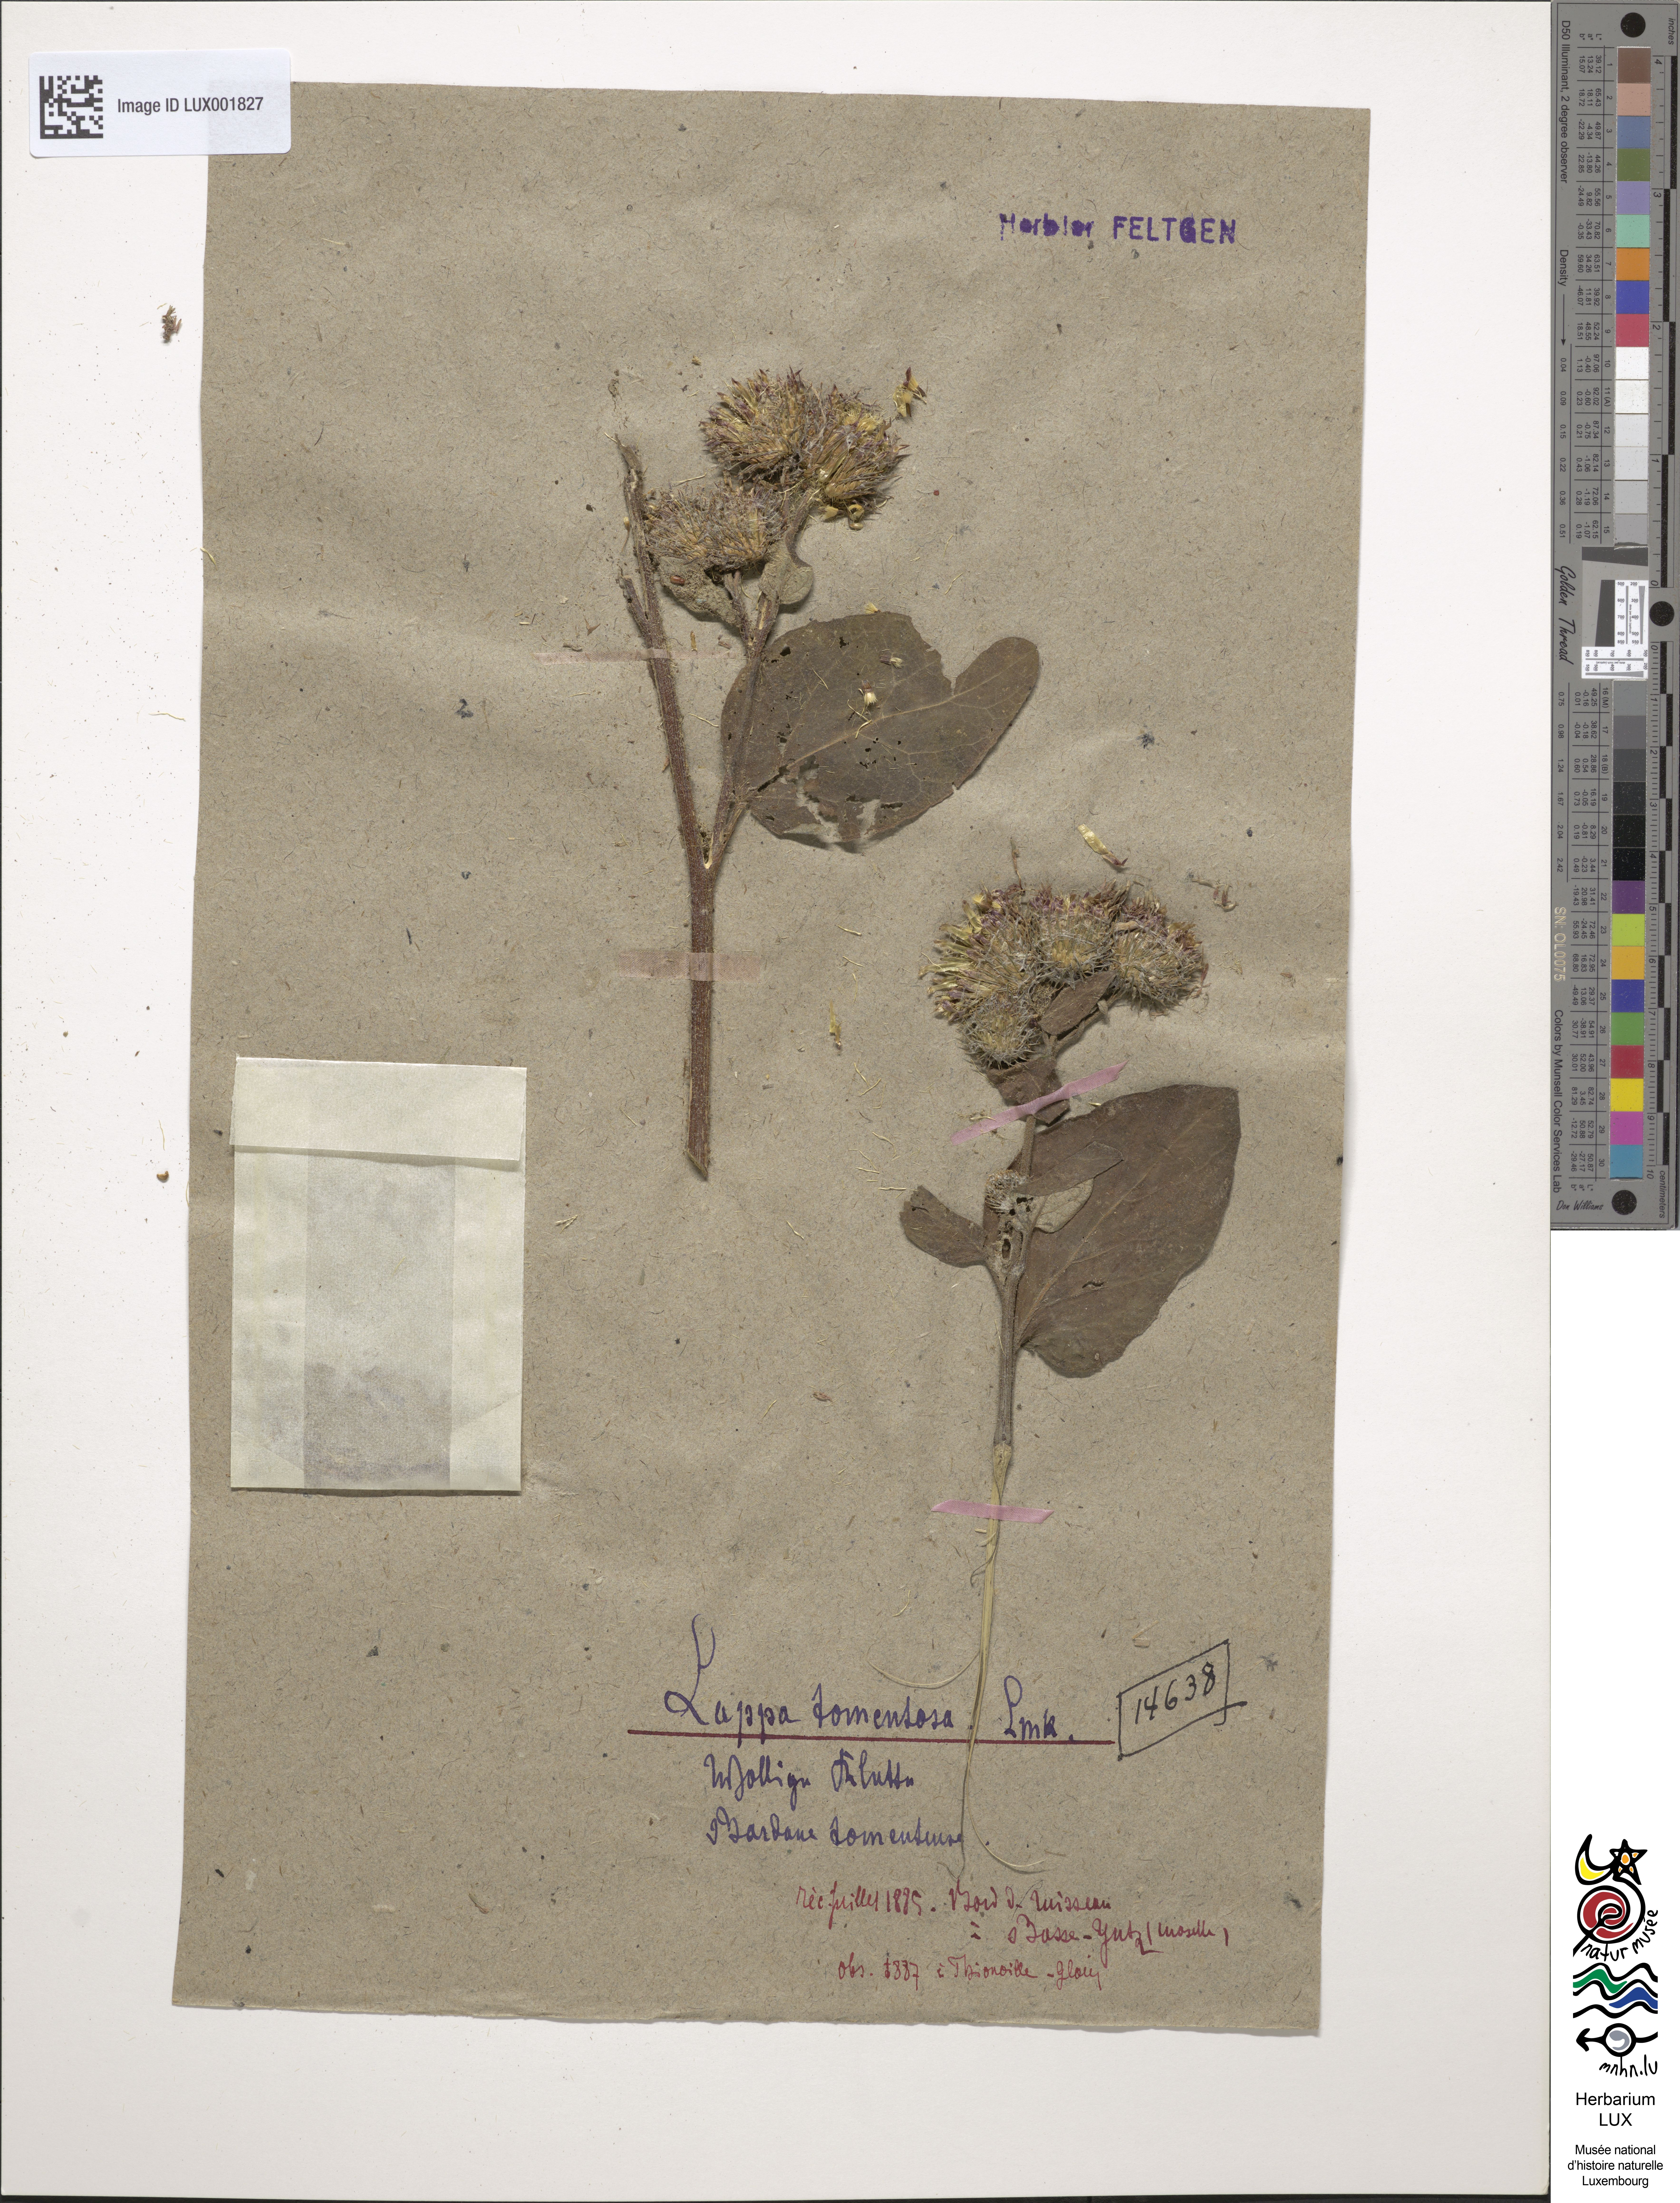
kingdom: Plantae
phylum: Tracheophyta
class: Magnoliopsida
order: Asterales
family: Asteraceae
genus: Arctium
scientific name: Arctium tomentosum
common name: Woolly burdock
